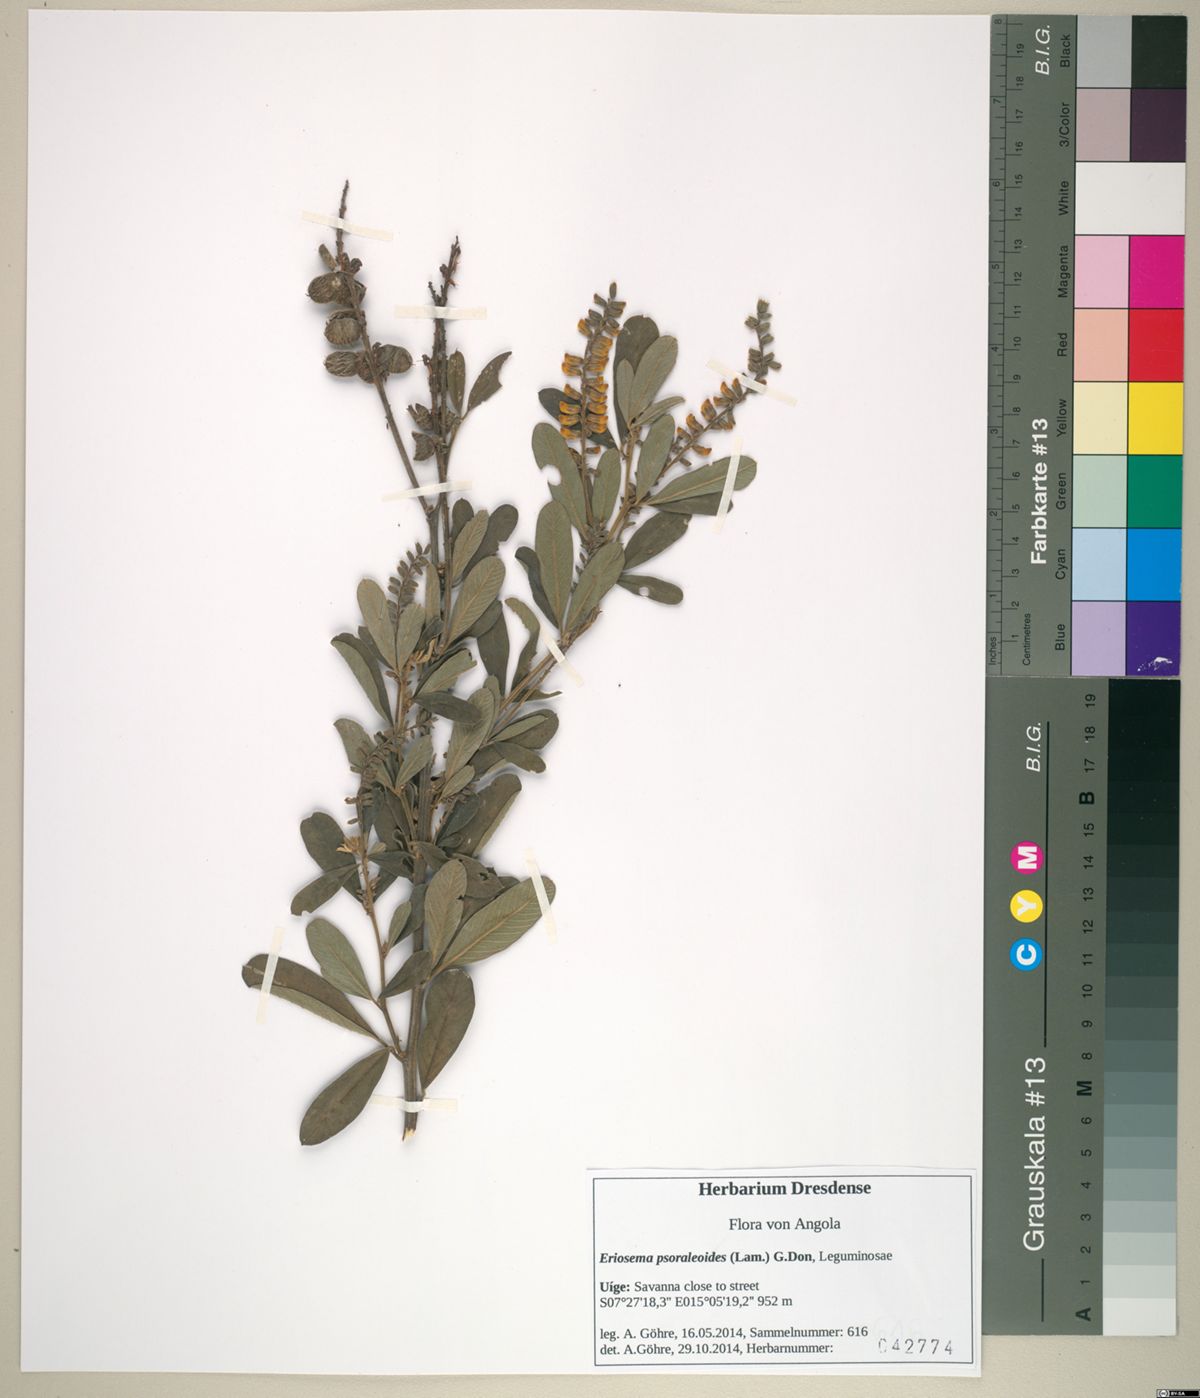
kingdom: Plantae
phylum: Tracheophyta
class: Magnoliopsida
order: Fabales
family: Fabaceae
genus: Eriosema
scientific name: Eriosema psoraleoides
